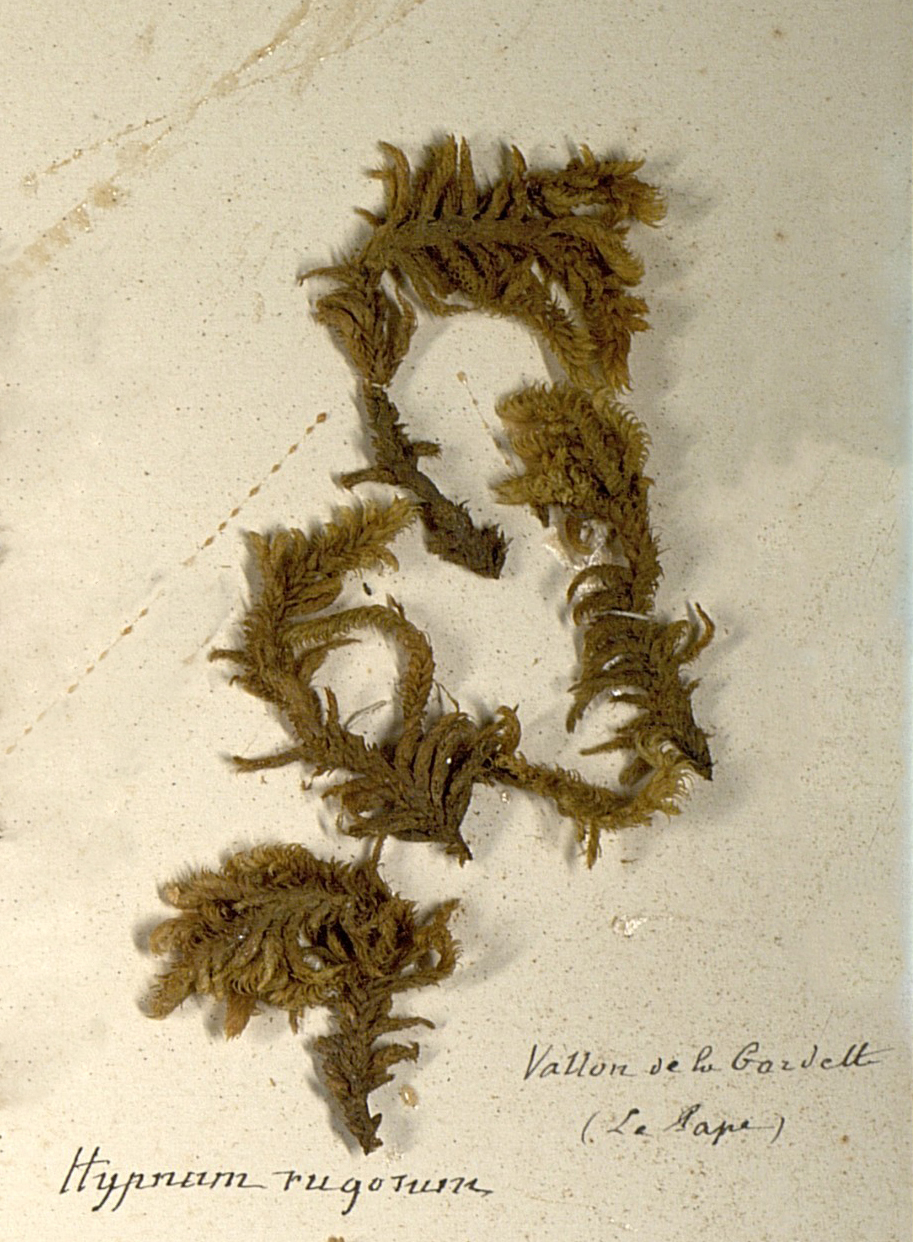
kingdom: Plantae
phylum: Bryophyta
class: Bryopsida
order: Hypnales
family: Rhytidiaceae
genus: Rhytidium
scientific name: Rhytidium rugosum
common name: Wrinkle-leaved moss
